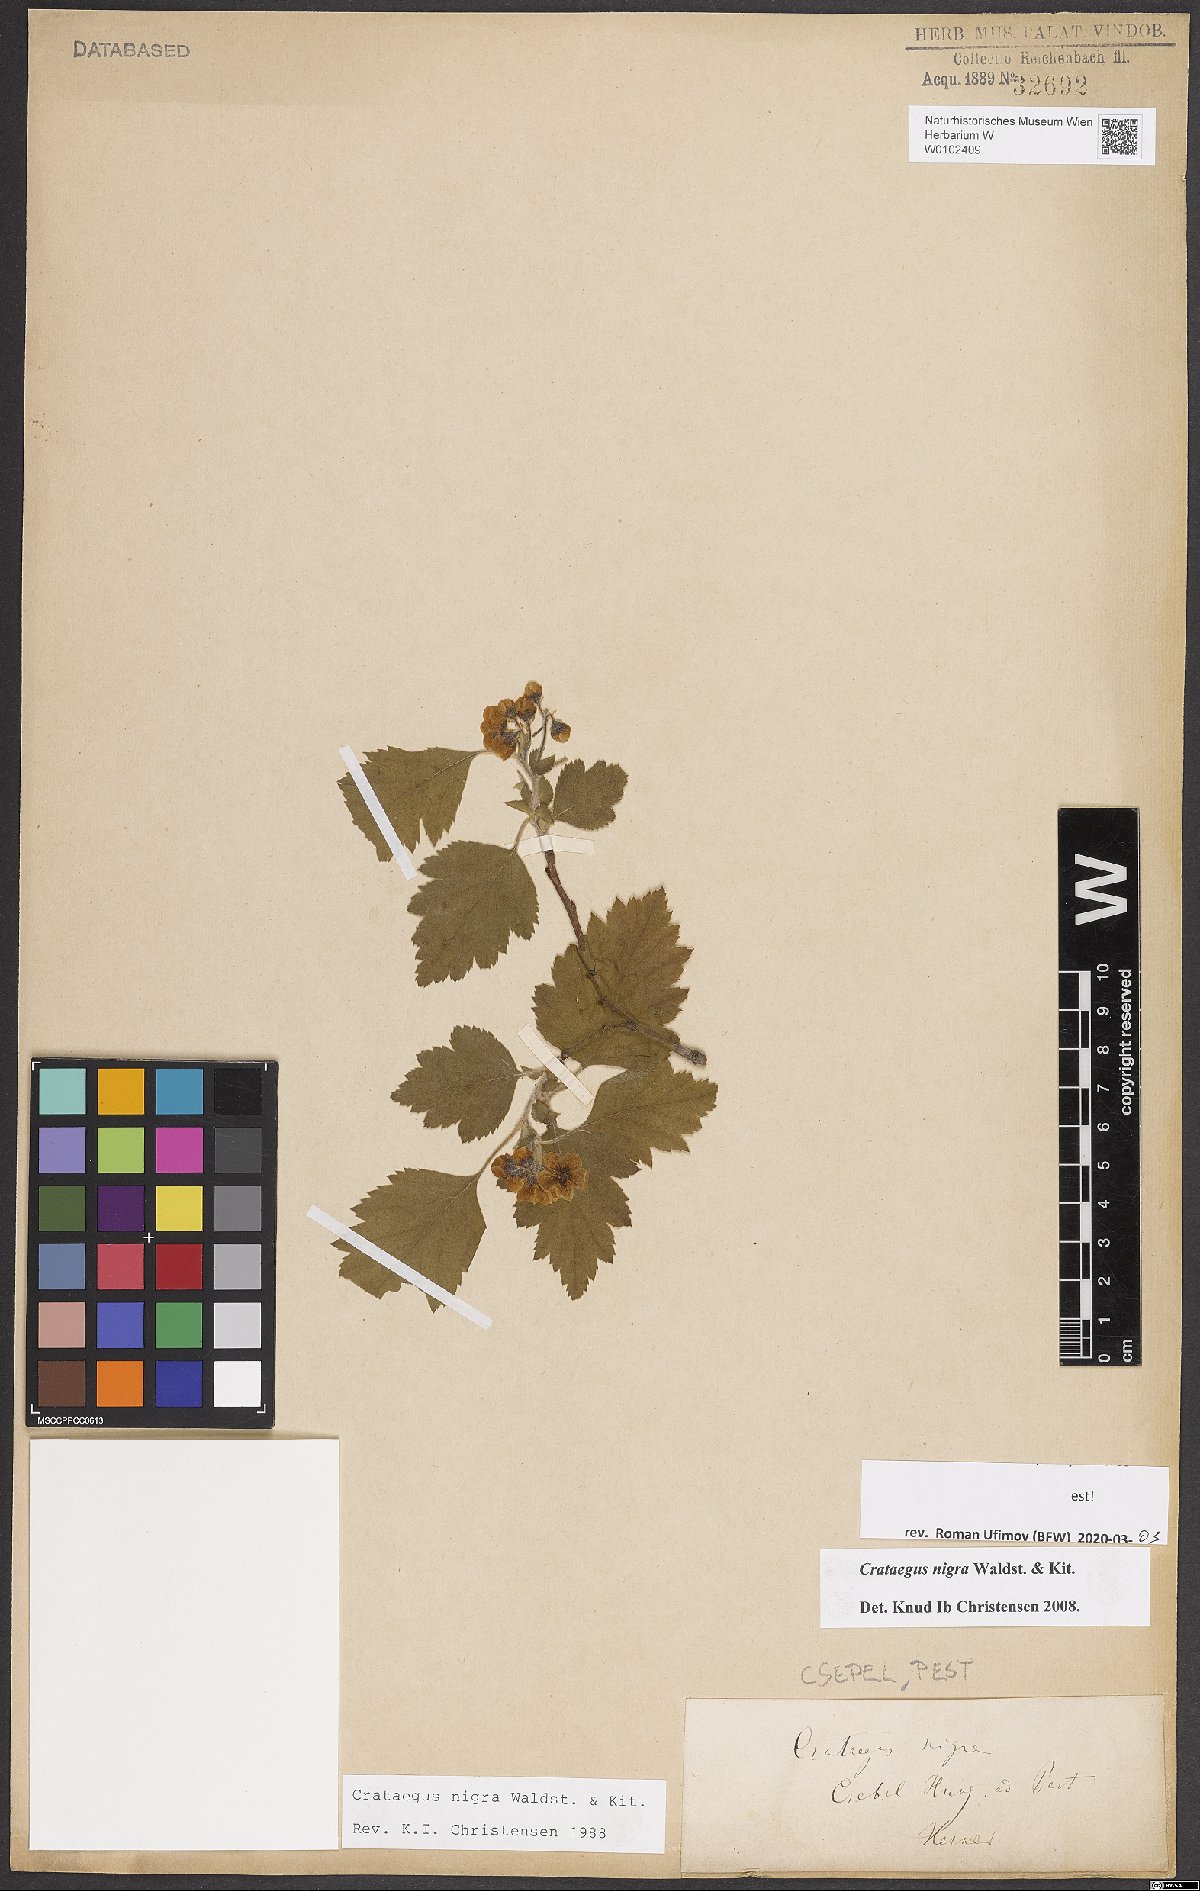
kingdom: Plantae
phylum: Tracheophyta
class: Magnoliopsida
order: Rosales
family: Rosaceae
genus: Crataegus
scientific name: Crataegus nigra
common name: Hungarian thorn
